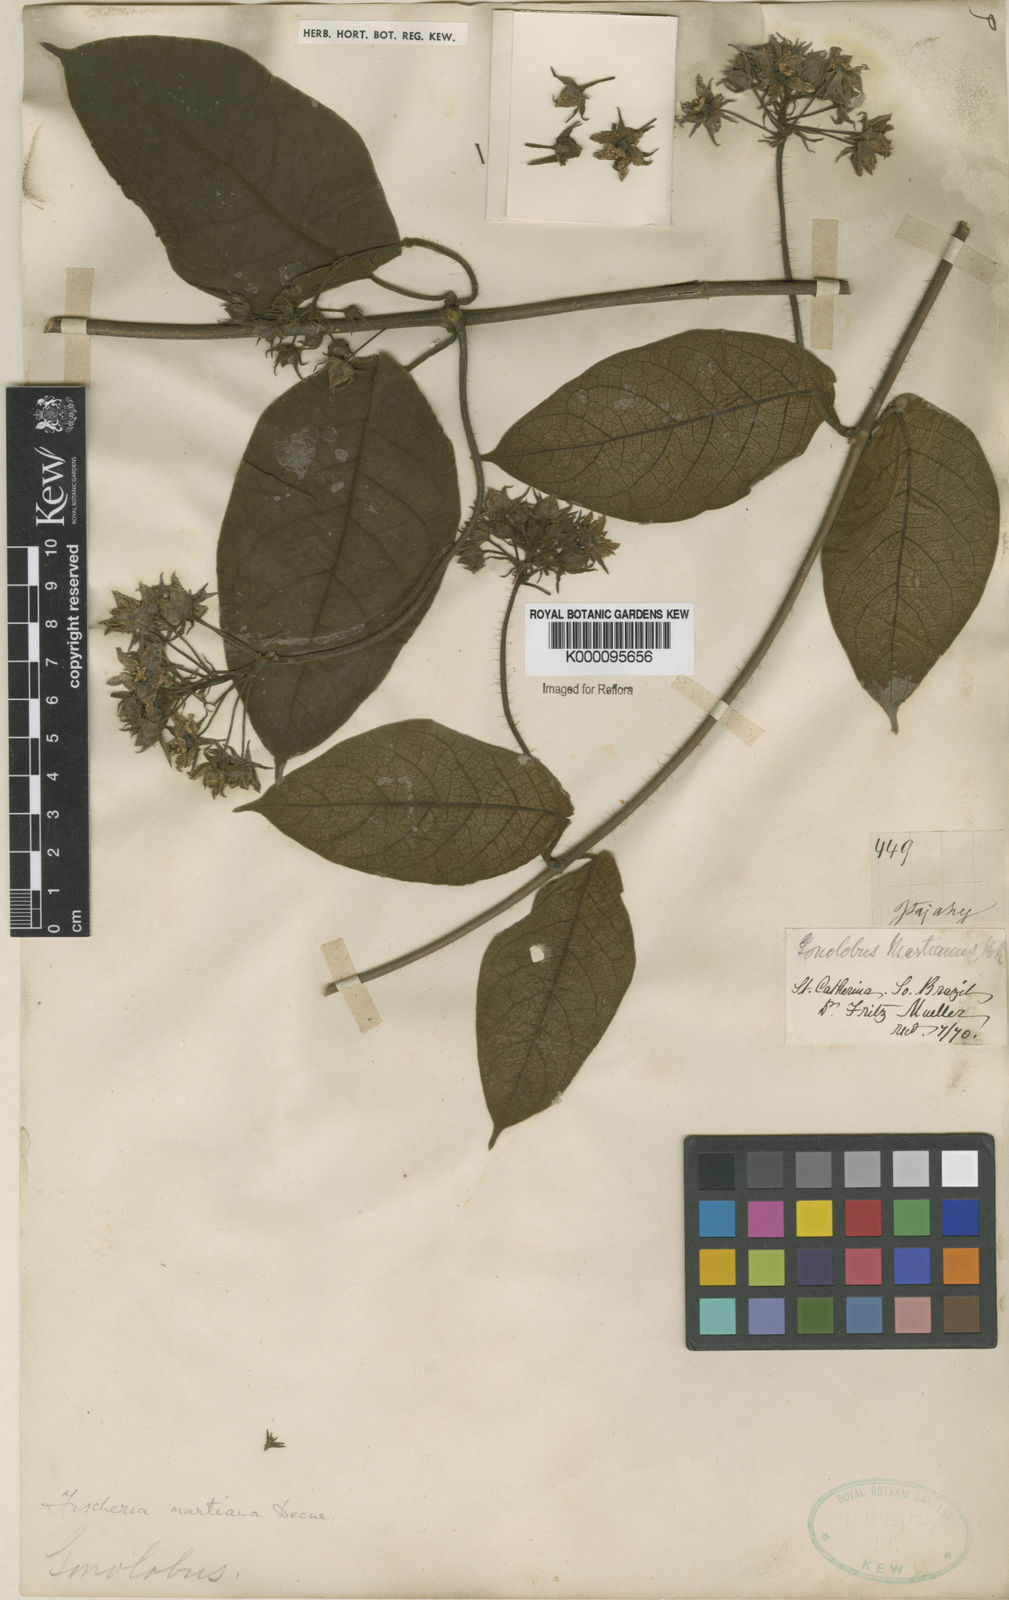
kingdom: Plantae
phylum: Tracheophyta
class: Magnoliopsida
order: Gentianales
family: Apocynaceae
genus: Fischeria
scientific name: Fischeria stellata
